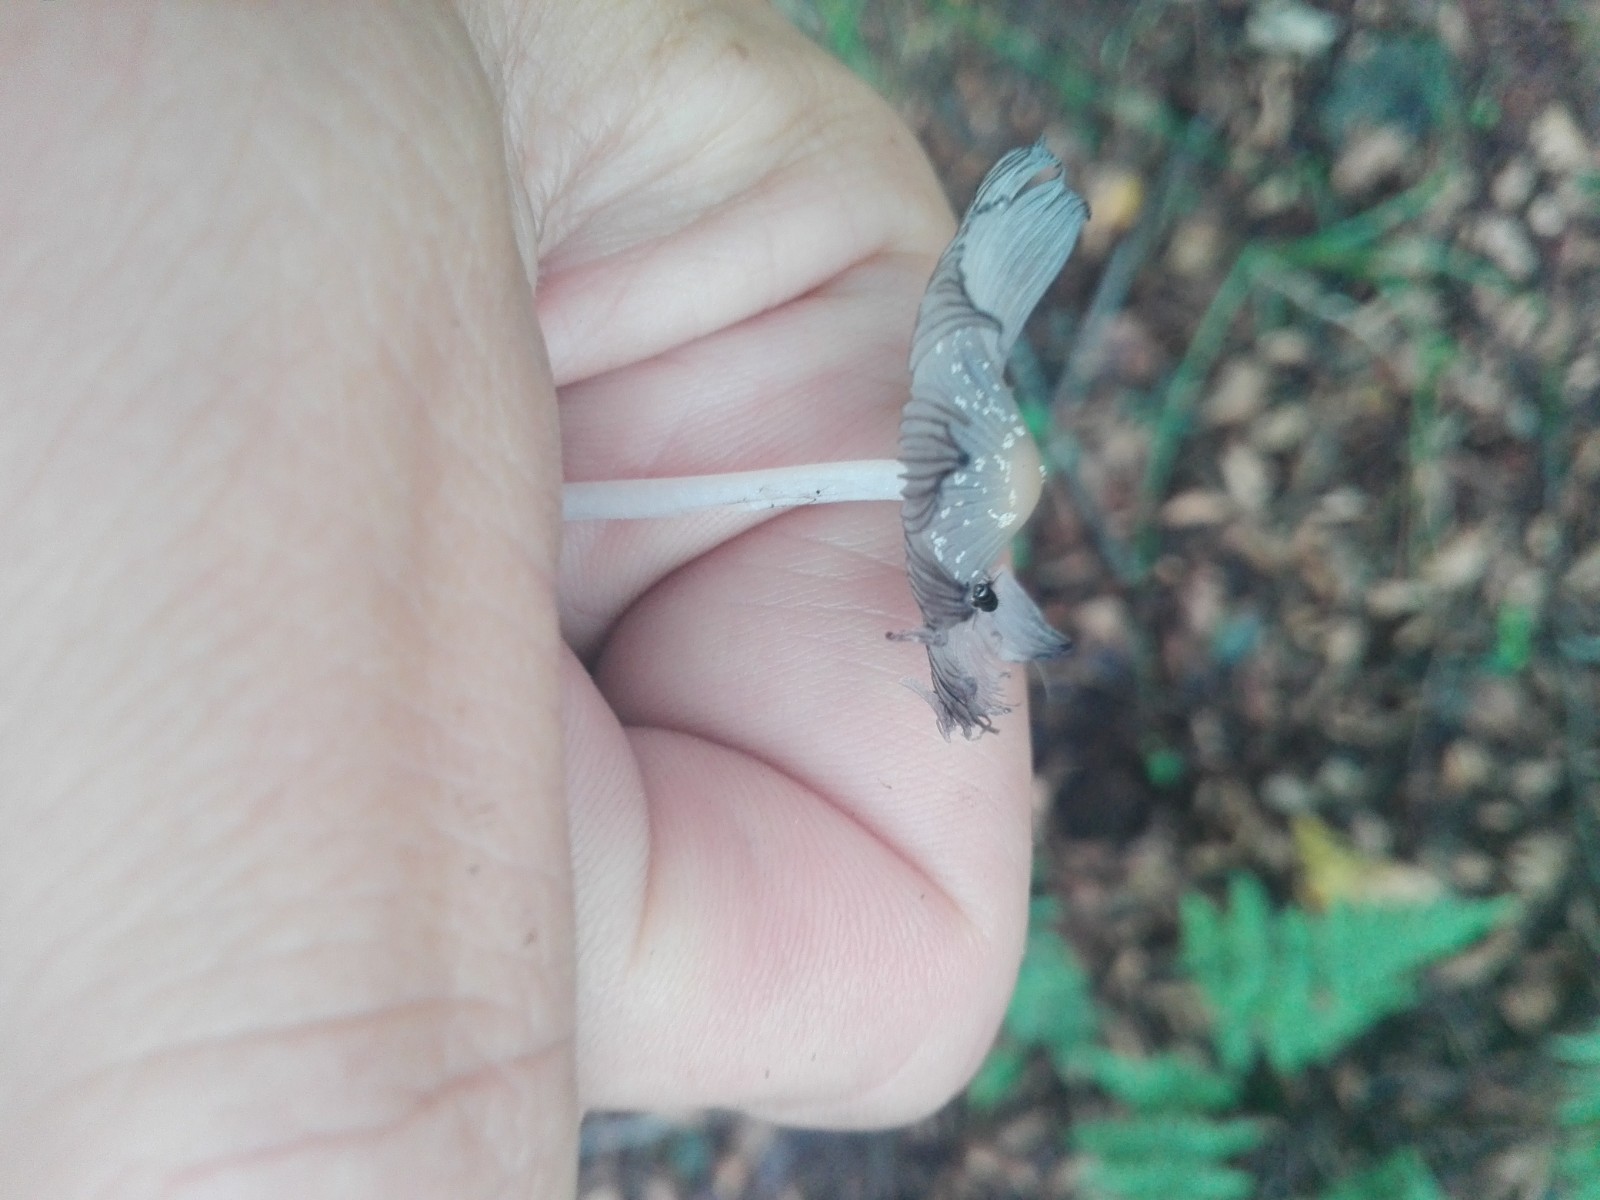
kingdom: Fungi
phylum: Basidiomycota
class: Agaricomycetes
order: Agaricales
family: Psathyrellaceae
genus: Coprinellus
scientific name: Coprinellus
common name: blækhat
